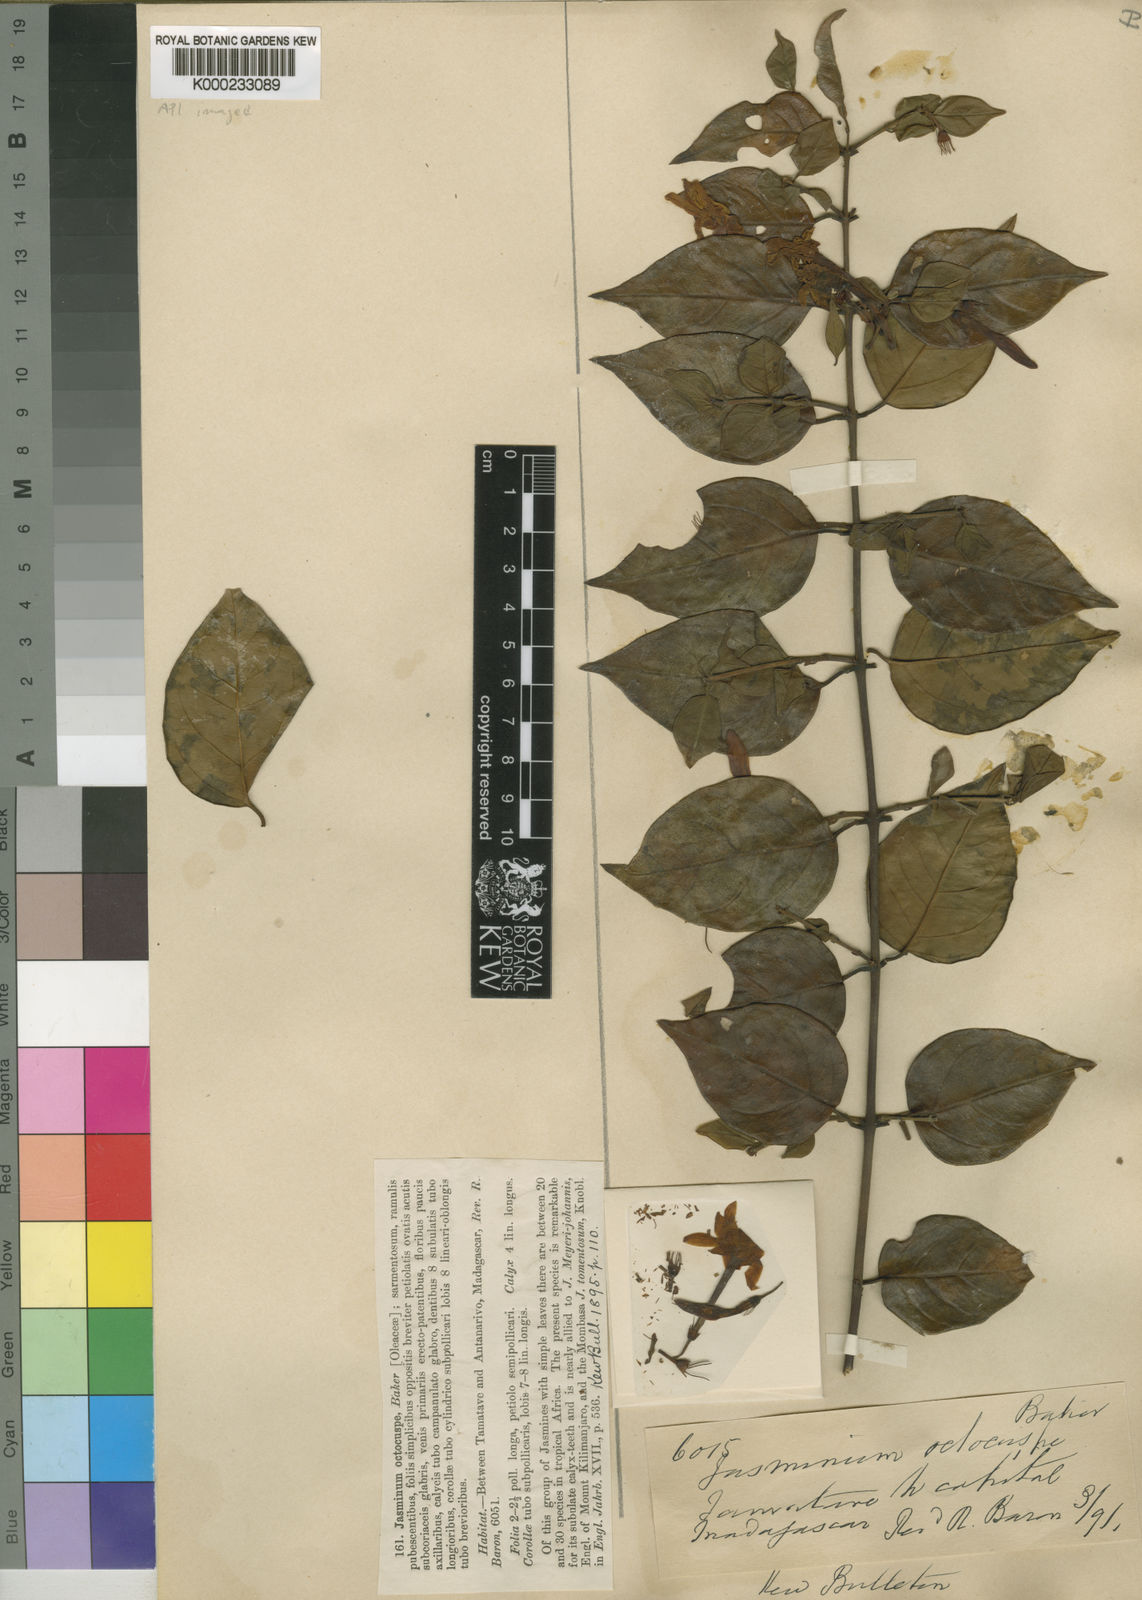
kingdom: Plantae
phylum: Tracheophyta
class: Magnoliopsida
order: Lamiales
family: Oleaceae
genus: Jasminum
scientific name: Jasminum octocuspe
